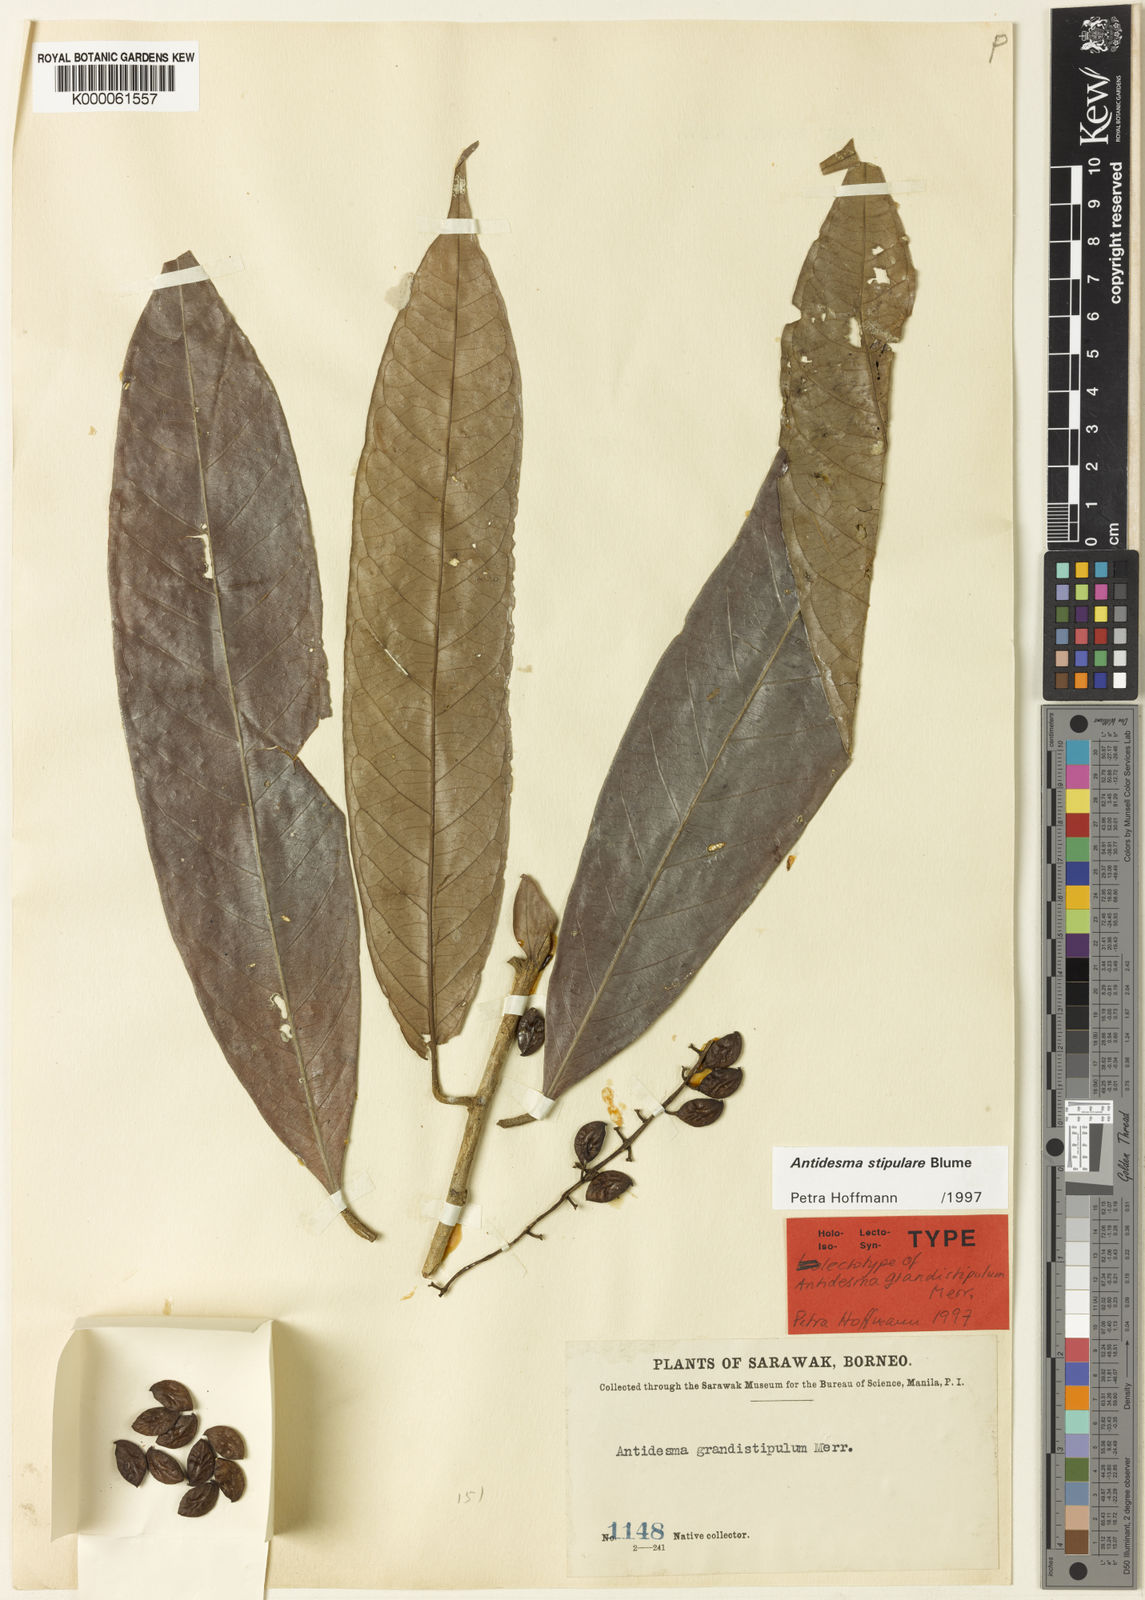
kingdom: Plantae
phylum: Tracheophyta
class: Magnoliopsida
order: Malpighiales
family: Phyllanthaceae
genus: Antidesma
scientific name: Antidesma stipulare
